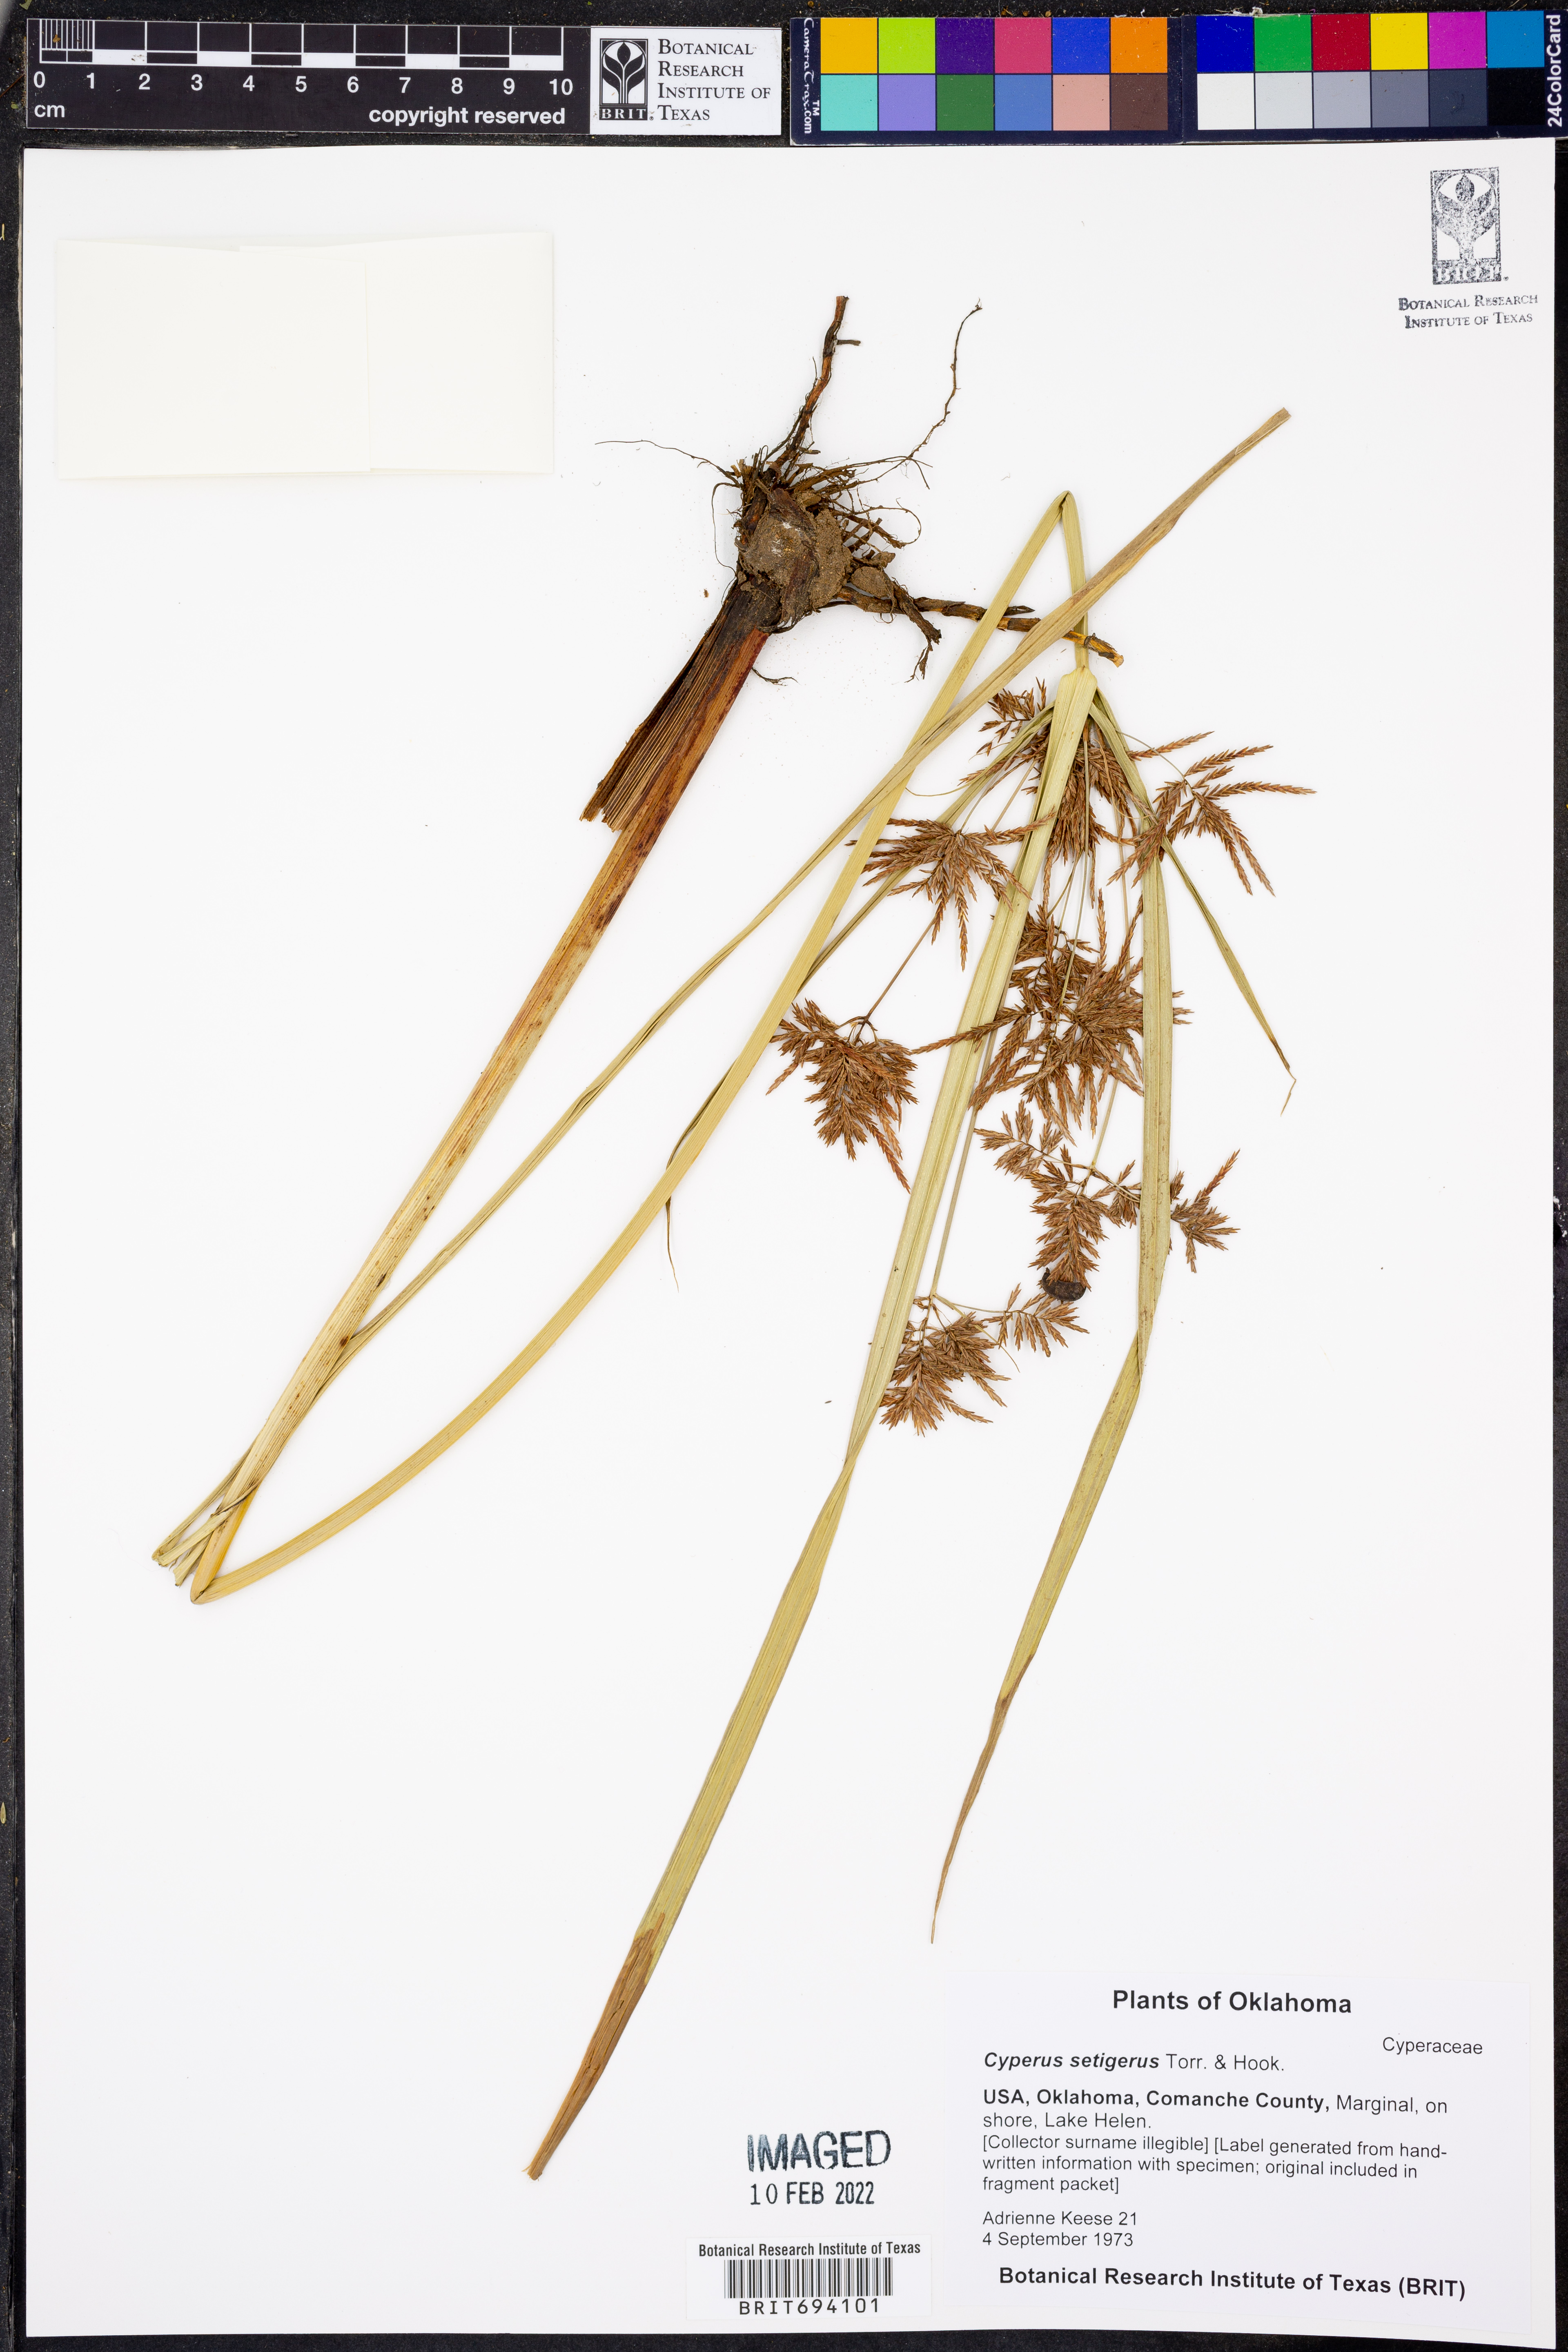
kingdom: Plantae
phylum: Tracheophyta
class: Liliopsida
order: Poales
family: Cyperaceae
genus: Cyperus
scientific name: Cyperus setigerus
